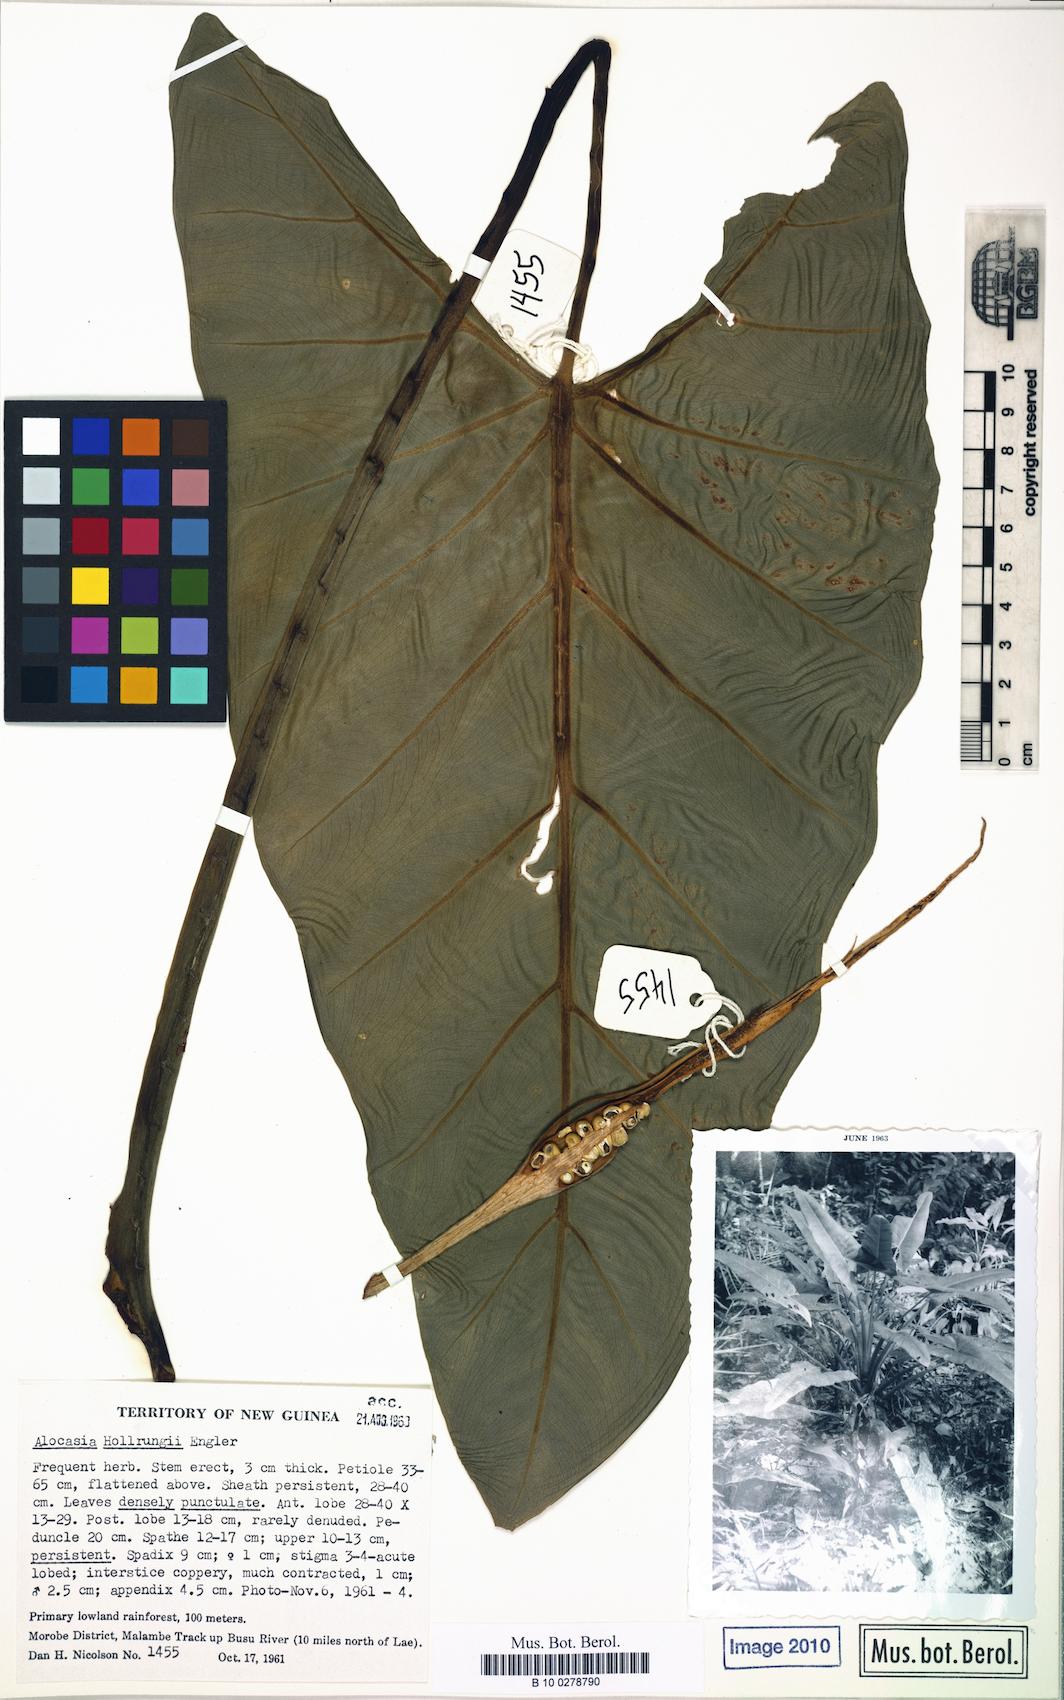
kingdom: Plantae
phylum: Tracheophyta
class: Liliopsida
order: Alismatales
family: Araceae
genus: Alocasia
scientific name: Alocasia hollrungii
